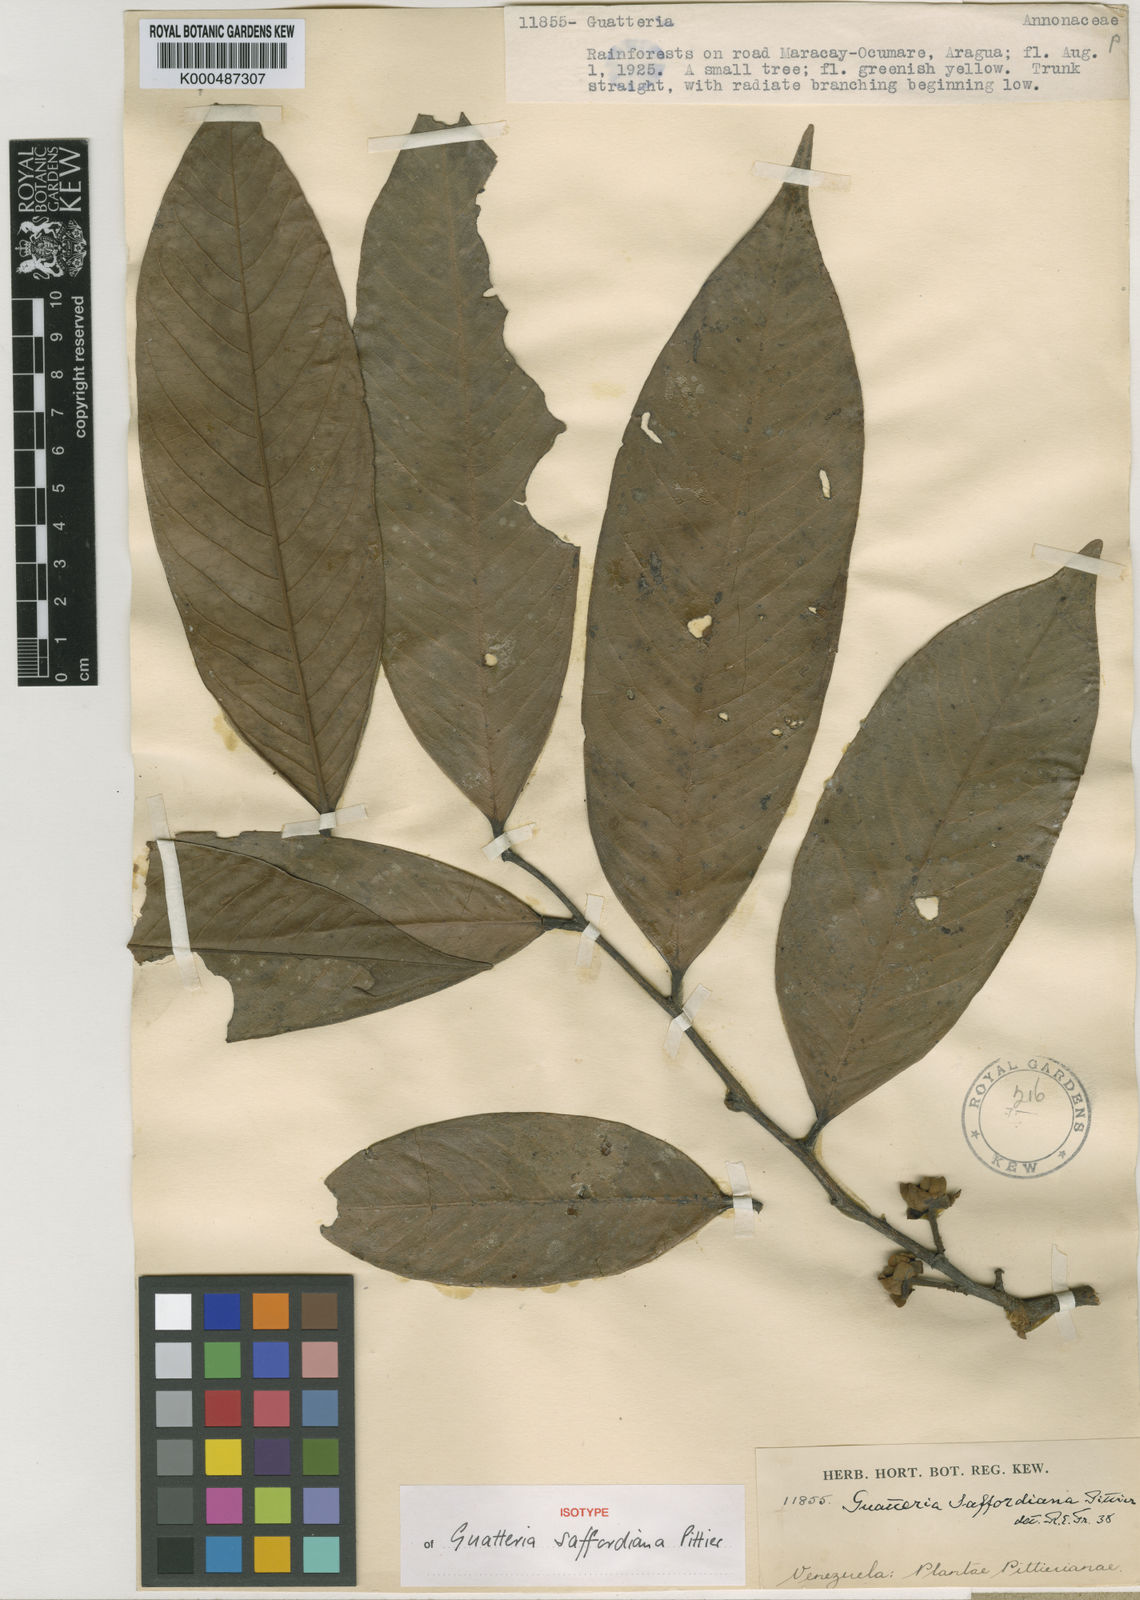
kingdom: Plantae
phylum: Tracheophyta
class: Magnoliopsida
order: Magnoliales
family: Annonaceae
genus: Guatteria
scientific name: Guatteria saffordiana
